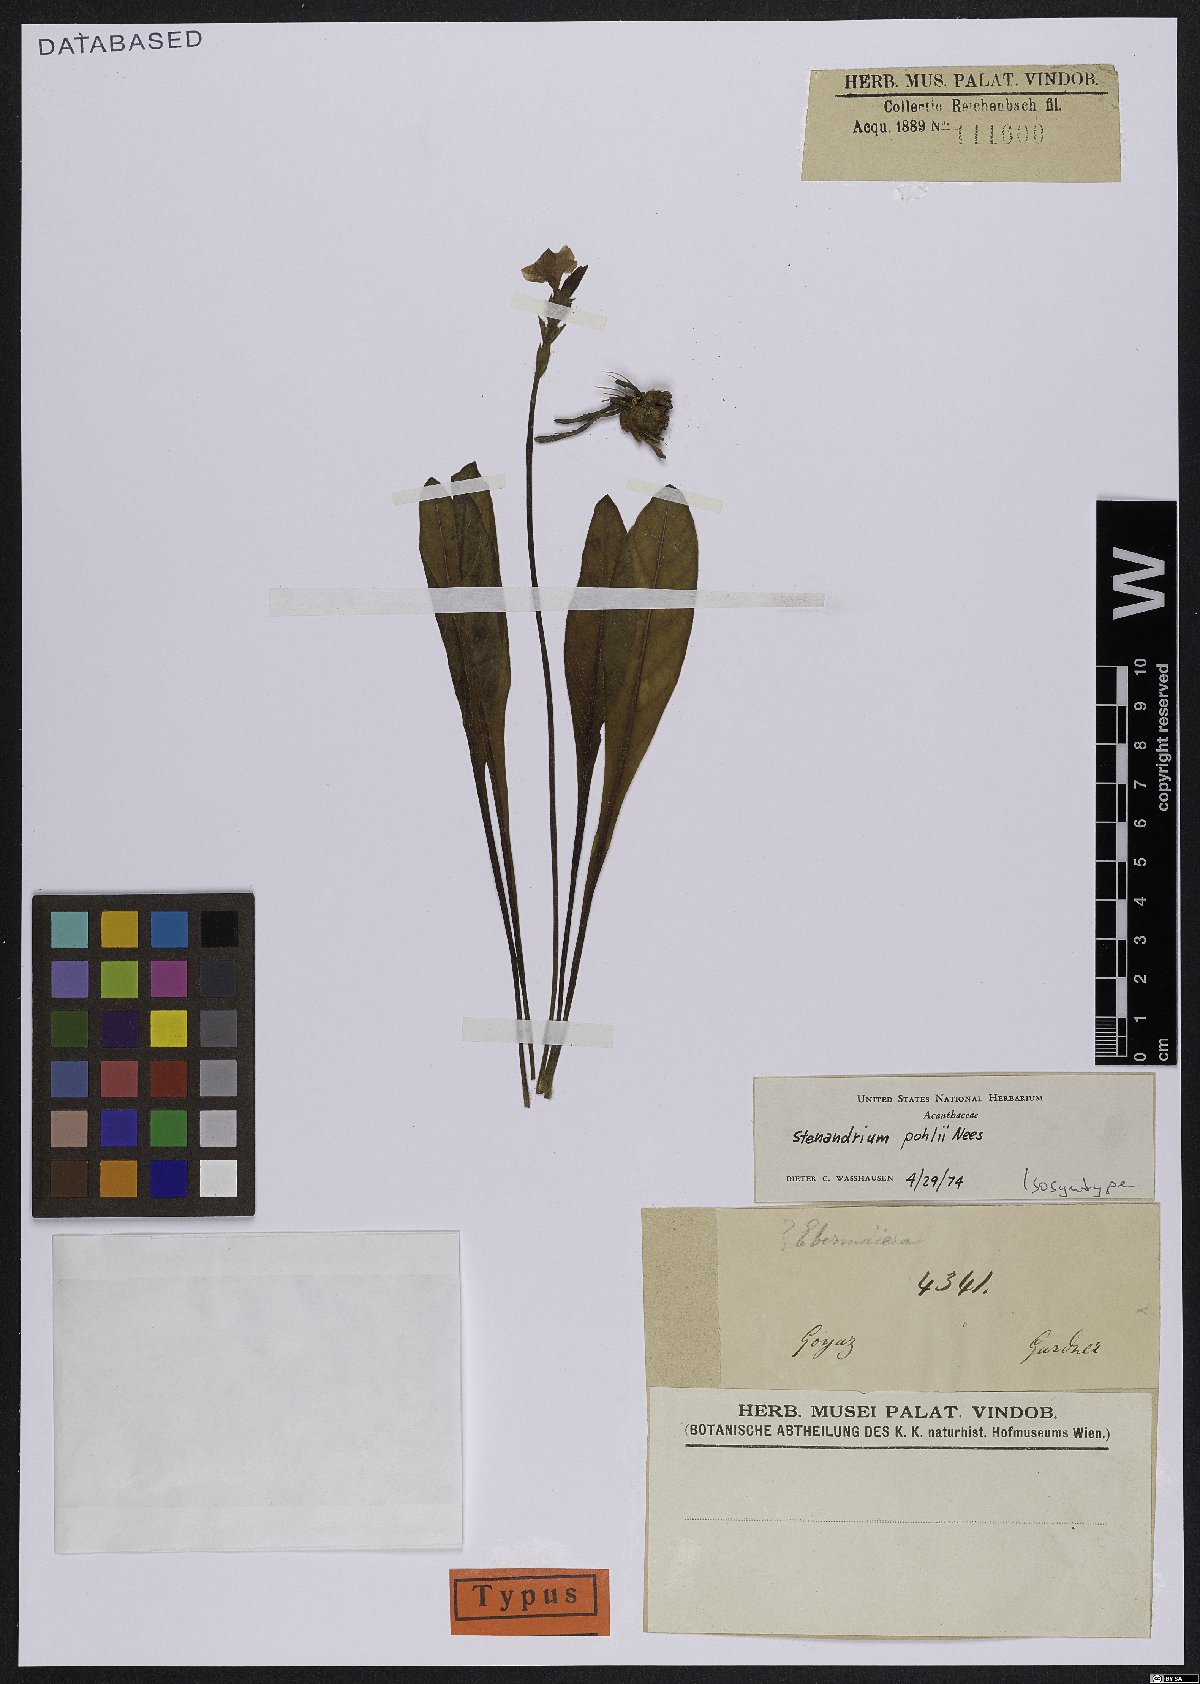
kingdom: Plantae
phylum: Tracheophyta
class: Magnoliopsida
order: Lamiales
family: Acanthaceae
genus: Stenandrium
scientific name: Stenandrium pohlii
